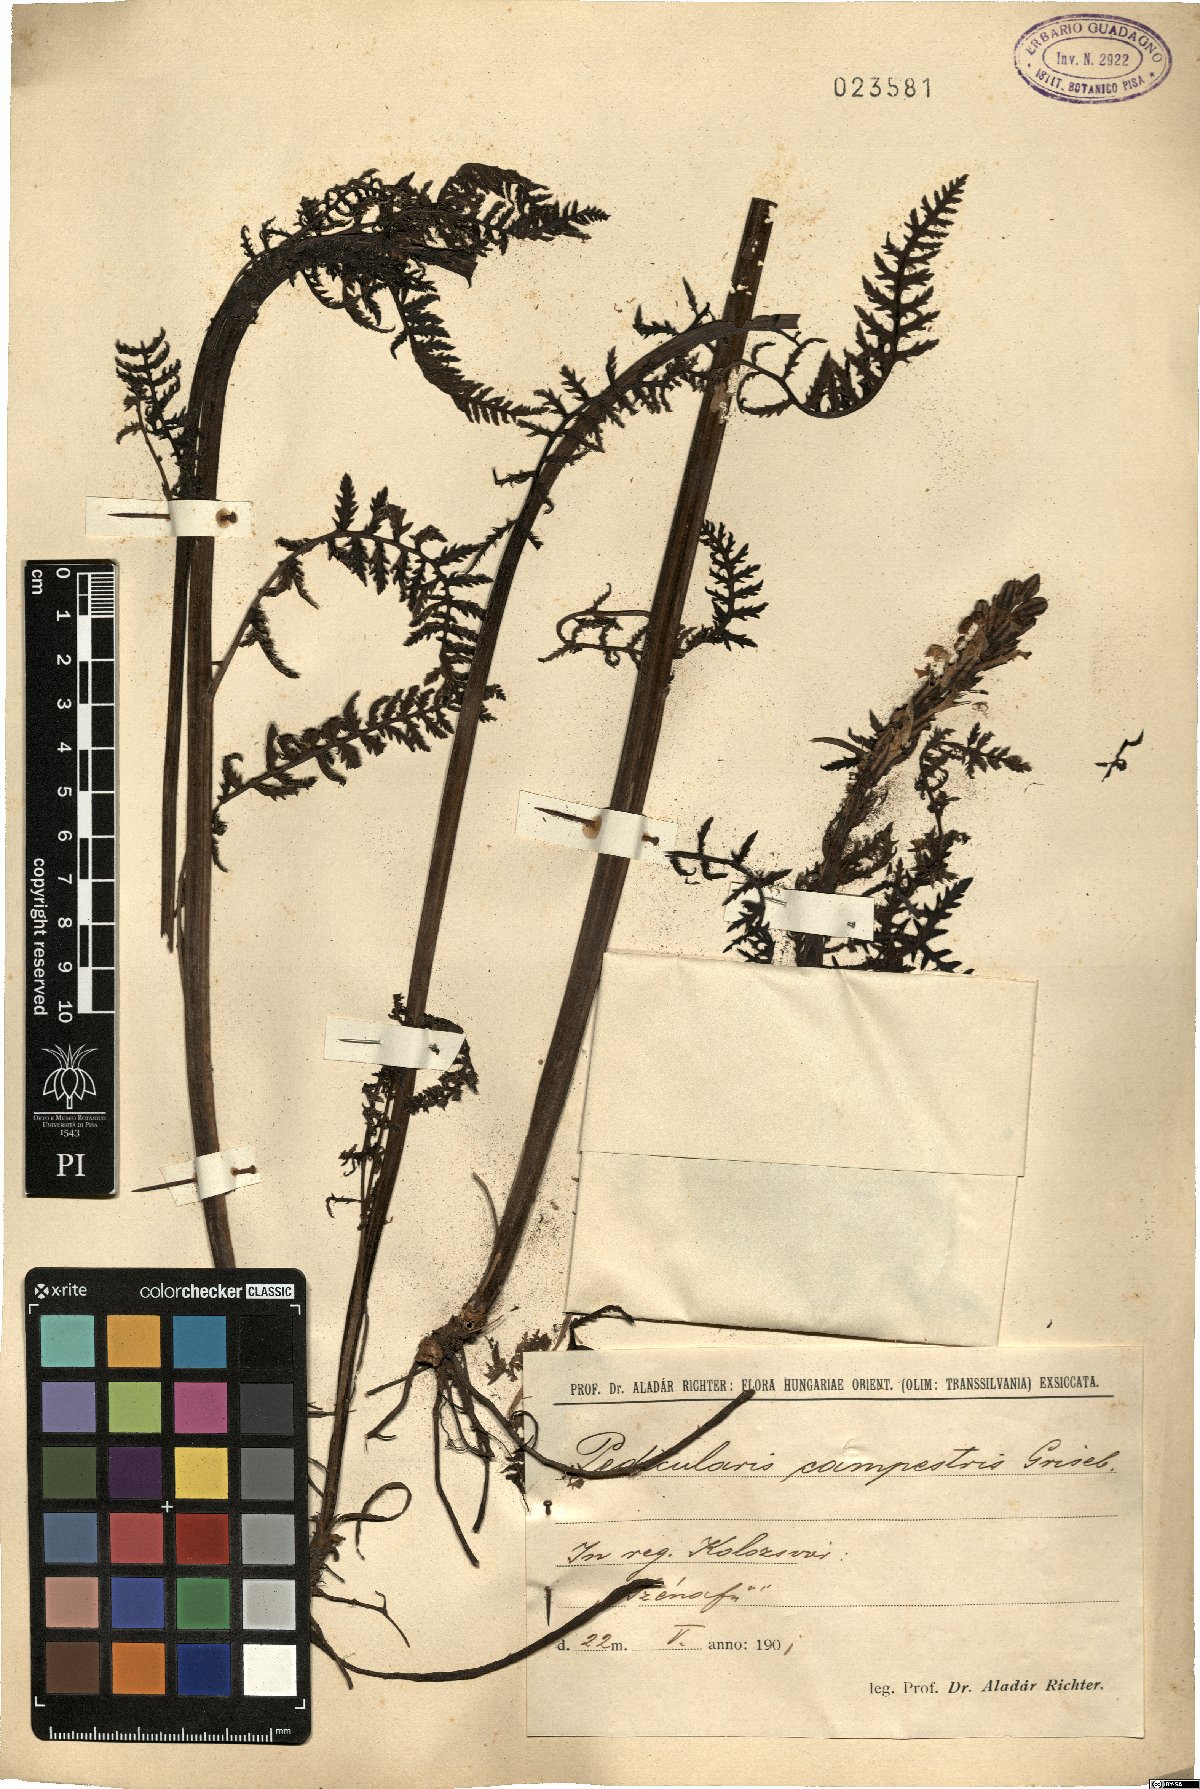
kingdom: Plantae
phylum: Tracheophyta
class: Magnoliopsida
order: Lamiales
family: Orobanchaceae
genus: Pedicularis
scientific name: Pedicularis comosa
